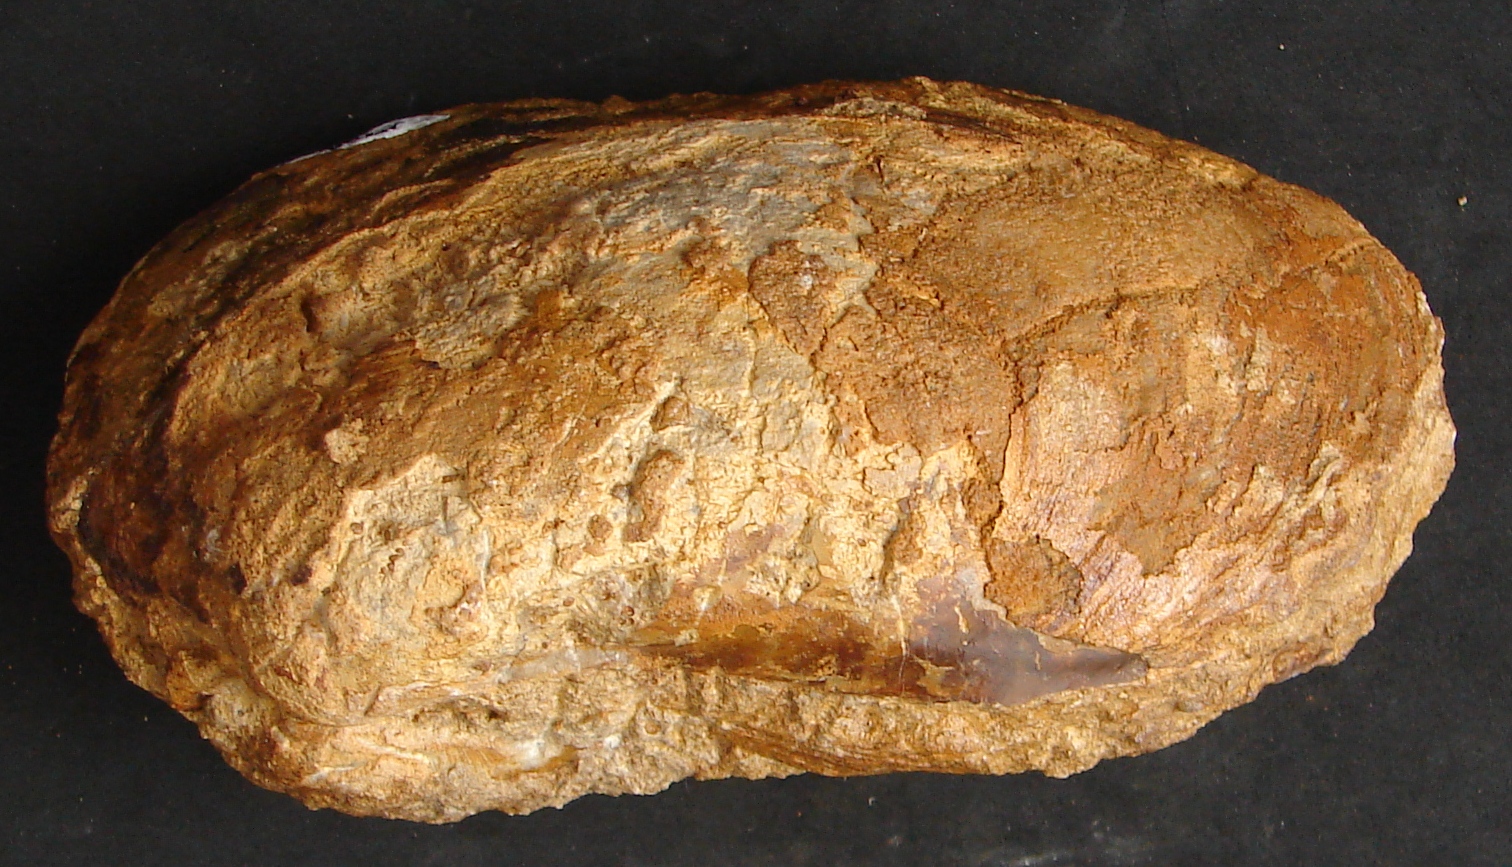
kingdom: Animalia
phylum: Mollusca
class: Bivalvia
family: Pholadomyidae
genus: Homomya
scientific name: Homomya
